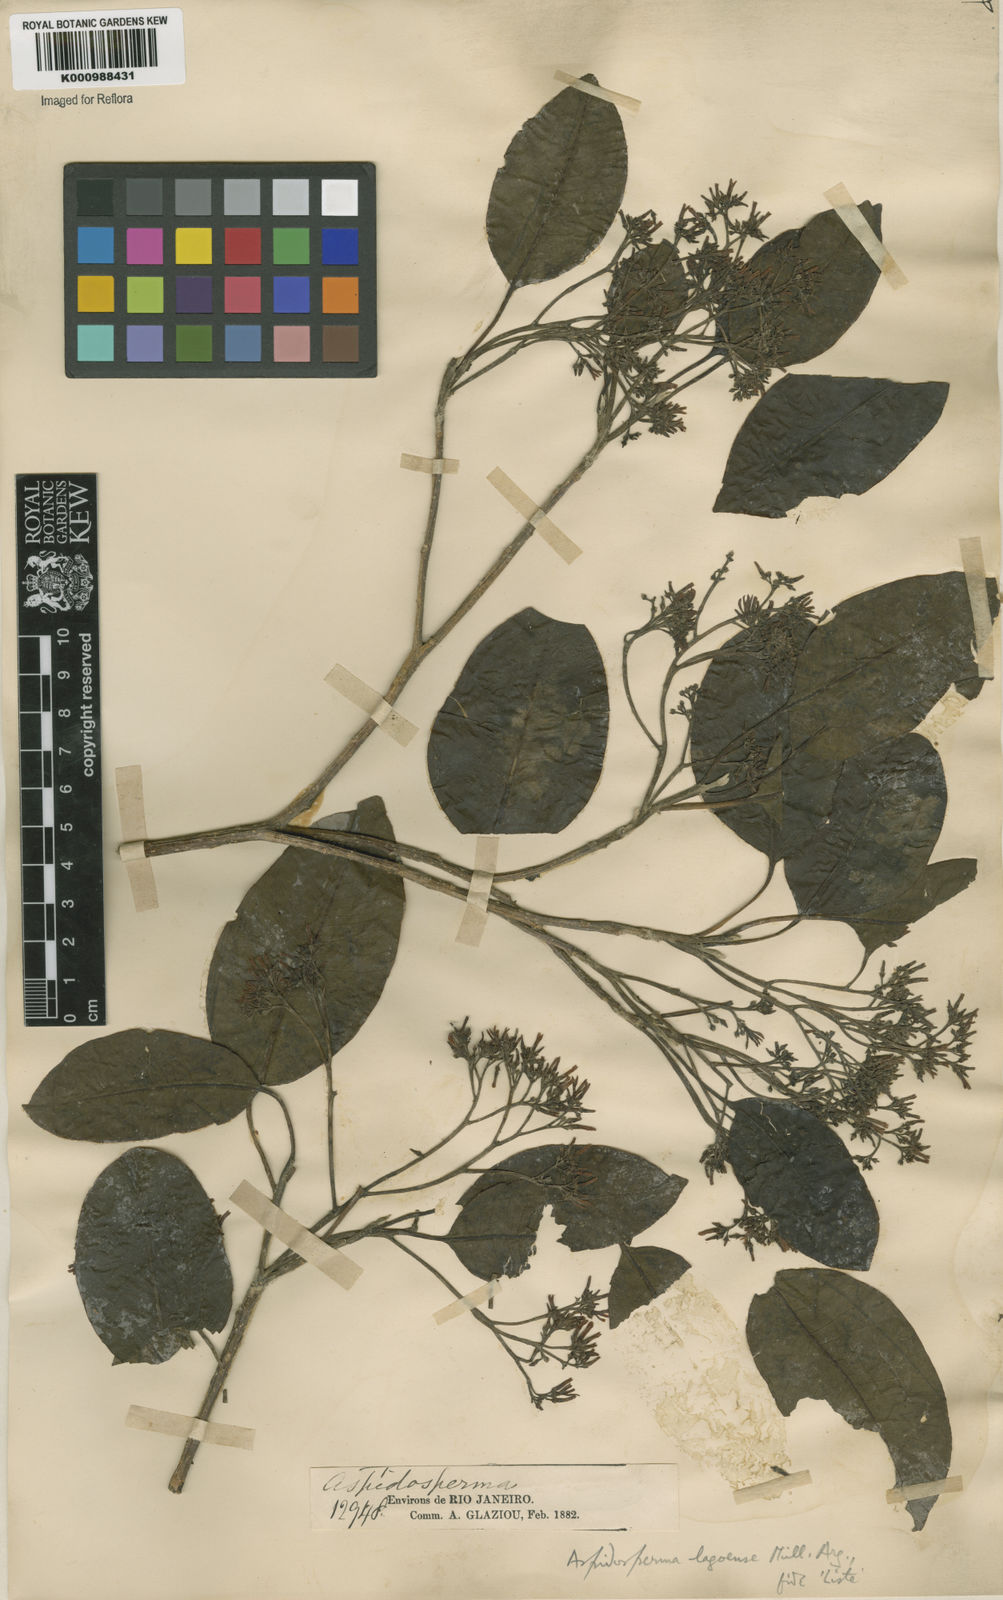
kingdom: Plantae
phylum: Tracheophyta
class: Magnoliopsida
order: Gentianales
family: Apocynaceae
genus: Aspidosperma
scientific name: Aspidosperma
